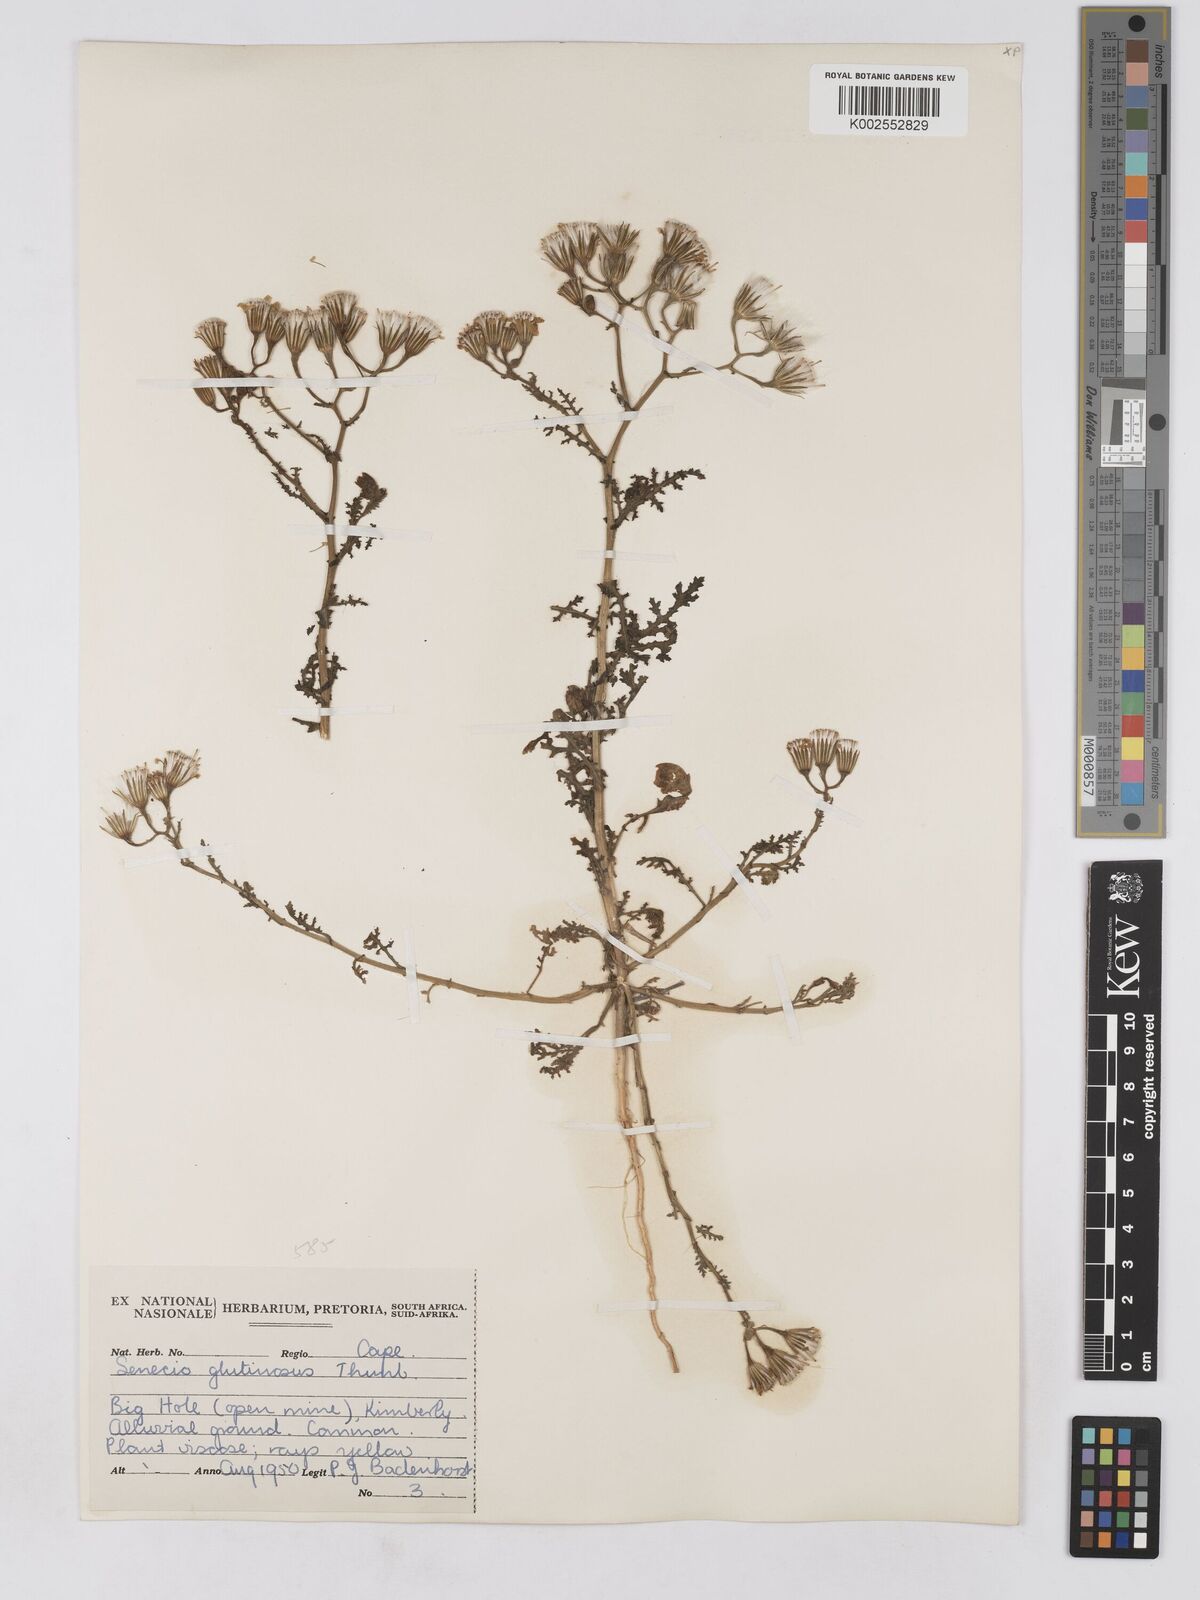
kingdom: Plantae
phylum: Tracheophyta
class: Magnoliopsida
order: Asterales
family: Asteraceae
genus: Senecio
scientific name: Senecio consanguineus
